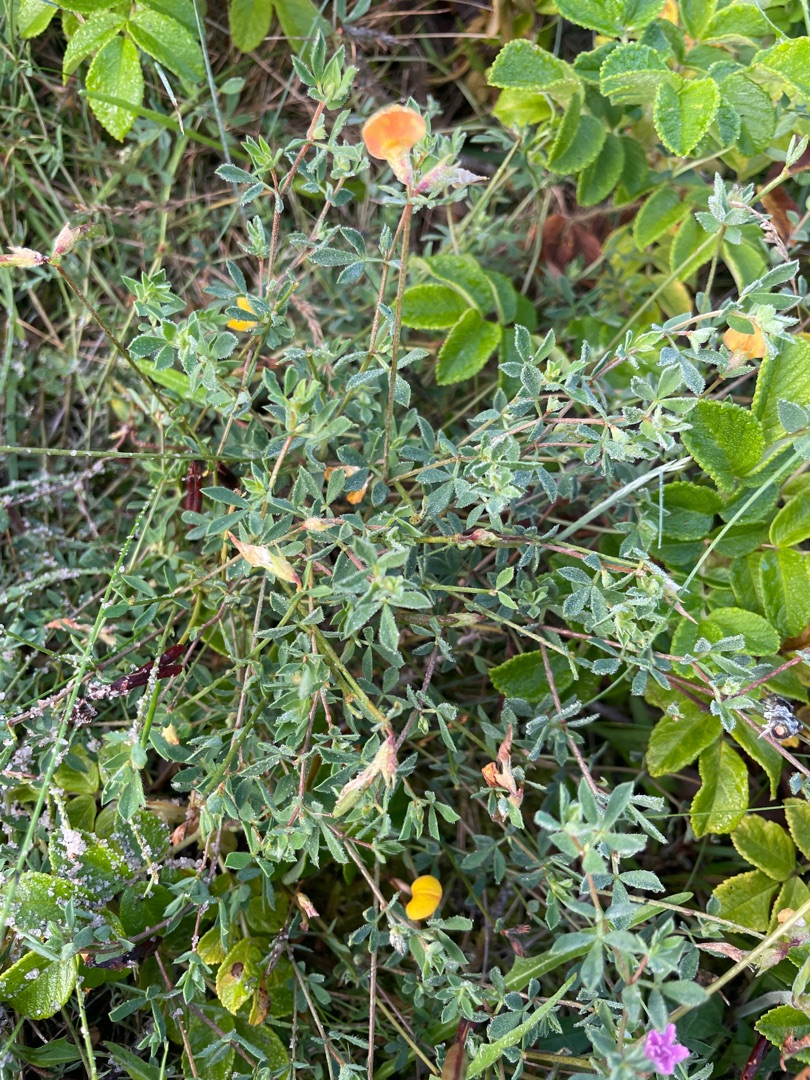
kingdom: Plantae
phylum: Tracheophyta
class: Magnoliopsida
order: Fabales
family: Fabaceae
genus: Lotus
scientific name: Lotus corniculatus
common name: Almindelig kællingetand
